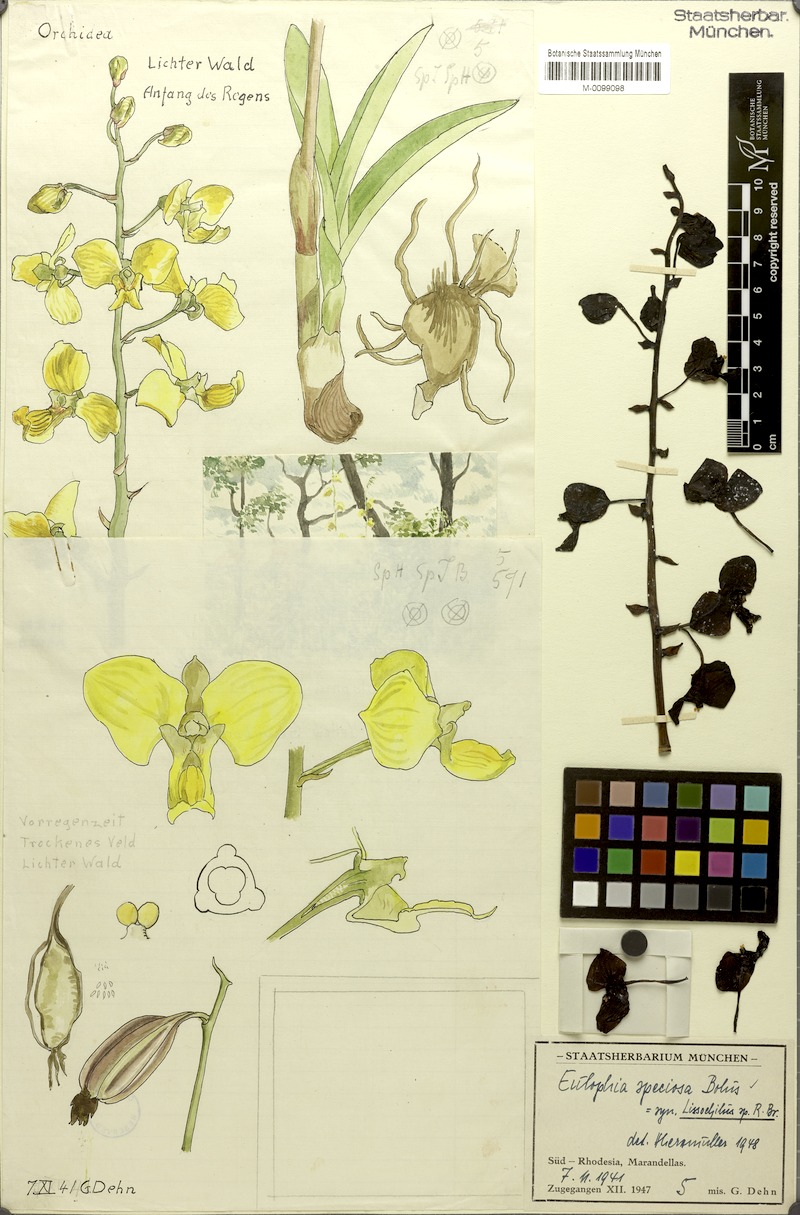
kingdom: Plantae
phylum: Tracheophyta
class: Liliopsida
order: Asparagales
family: Orchidaceae
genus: Eulophia
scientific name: Eulophia speciosa
